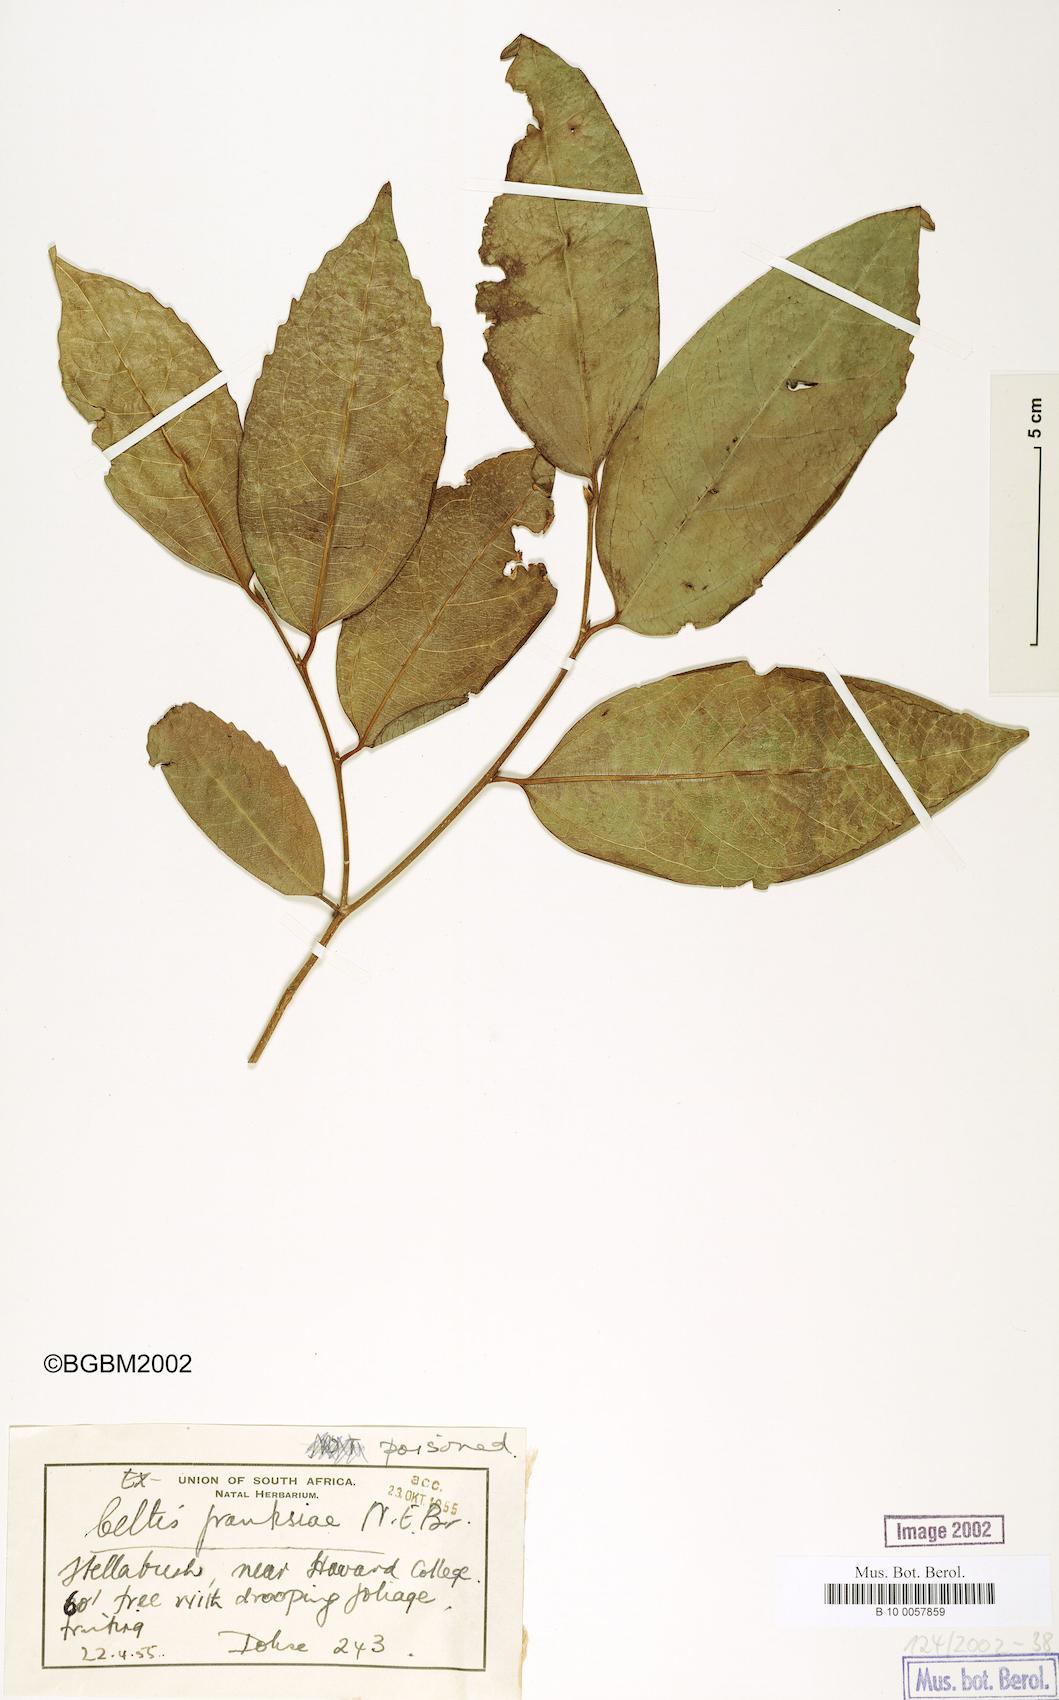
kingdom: Plantae
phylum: Tracheophyta
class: Magnoliopsida
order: Rosales
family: Cannabaceae
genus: Celtis
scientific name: Celtis mildbraedii
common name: Red-fruited stinkwood
